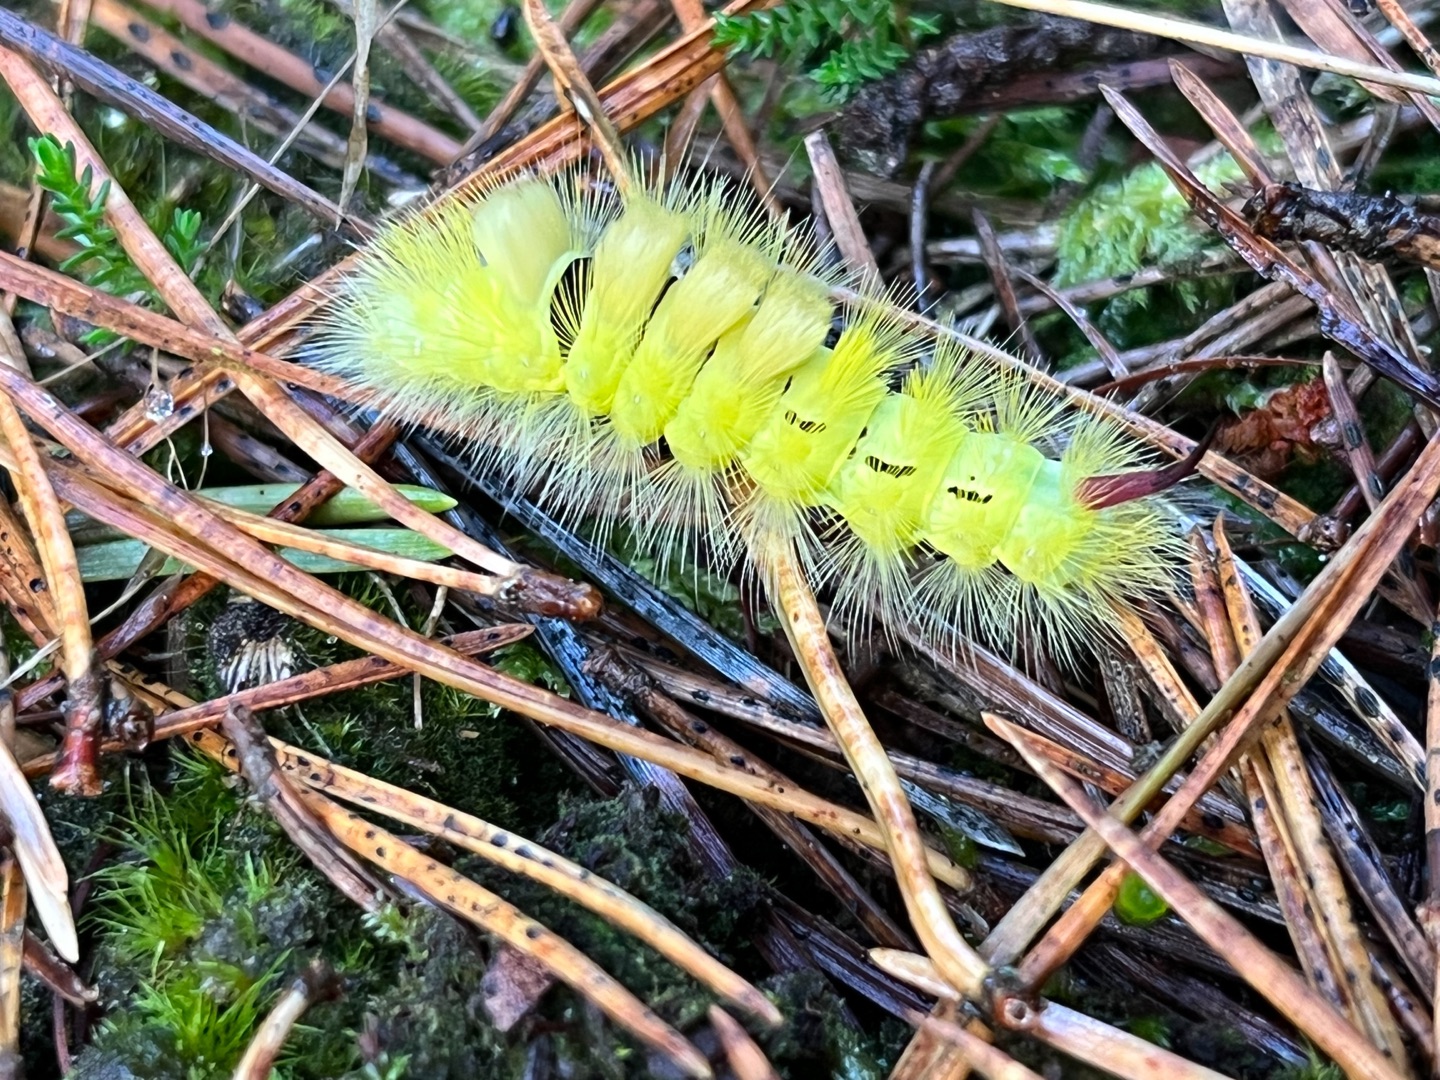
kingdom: Animalia
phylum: Arthropoda
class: Insecta
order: Lepidoptera
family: Erebidae
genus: Calliteara
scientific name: Calliteara pudibunda
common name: Bøgenonne
